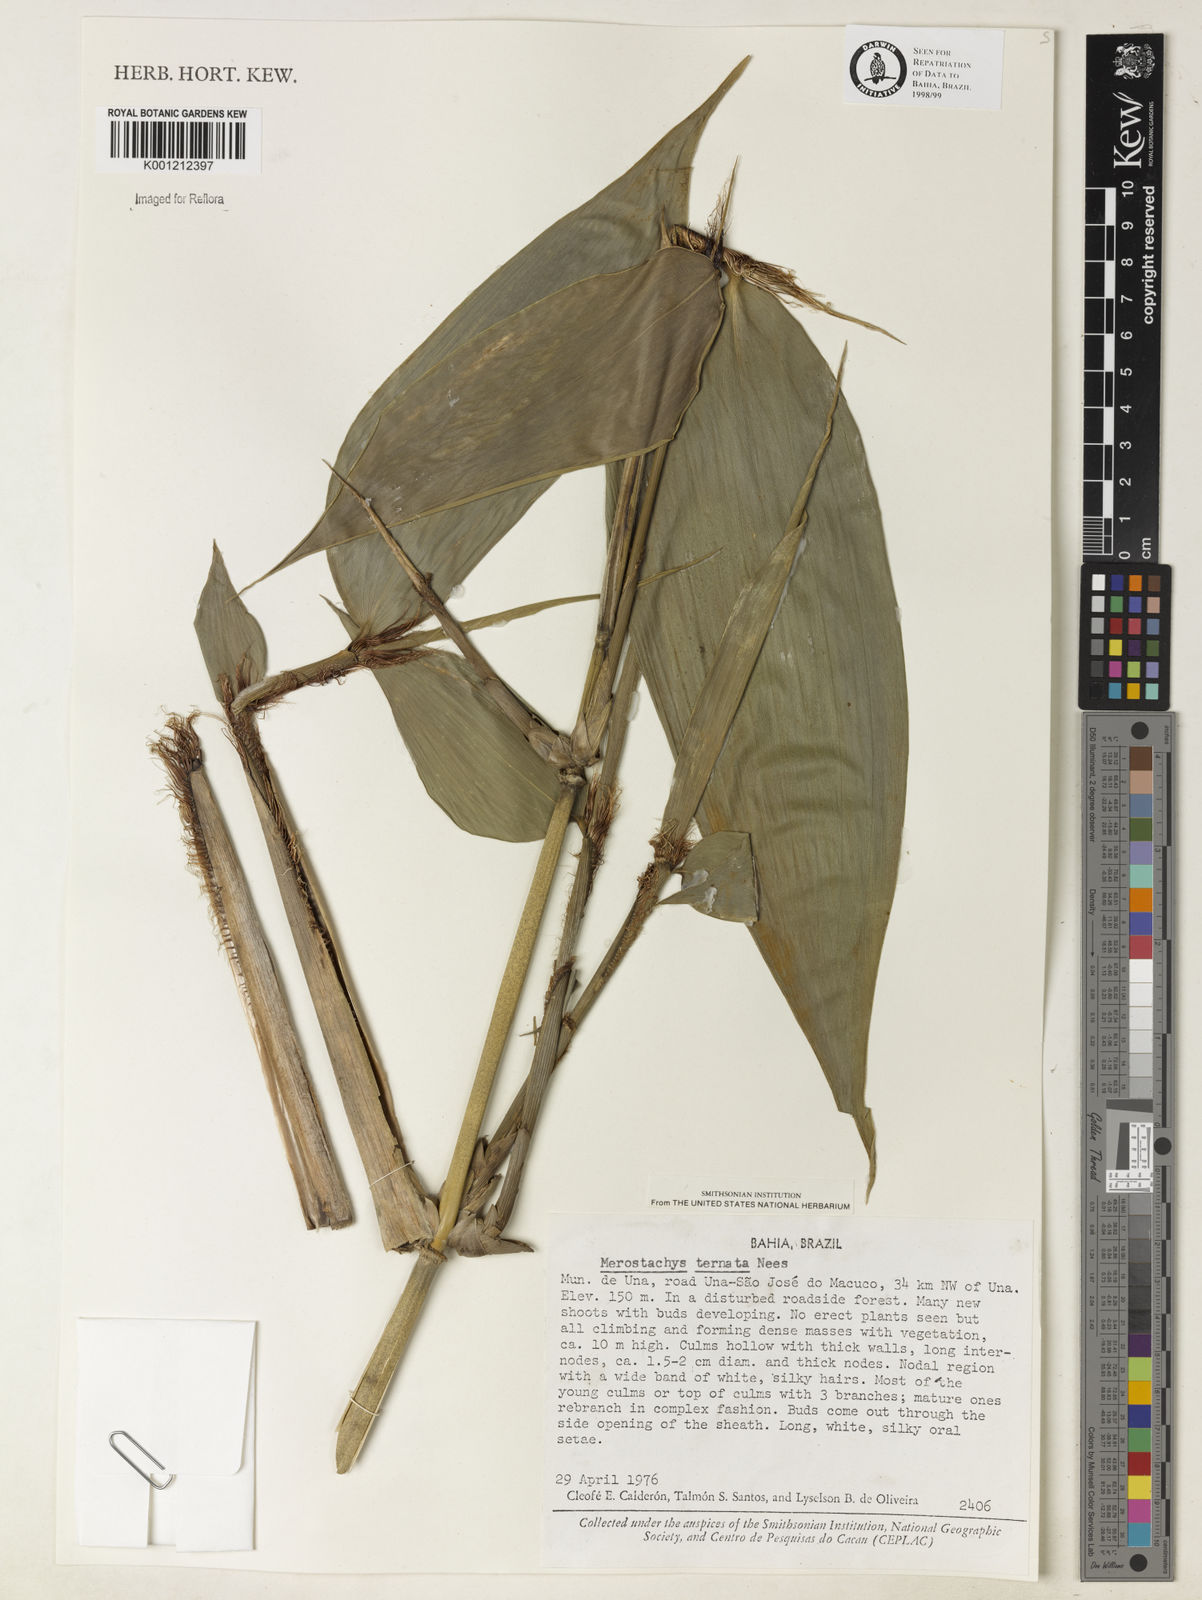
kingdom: Plantae
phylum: Tracheophyta
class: Liliopsida
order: Poales
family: Poaceae
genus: Merostachys
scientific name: Merostachys ternata
